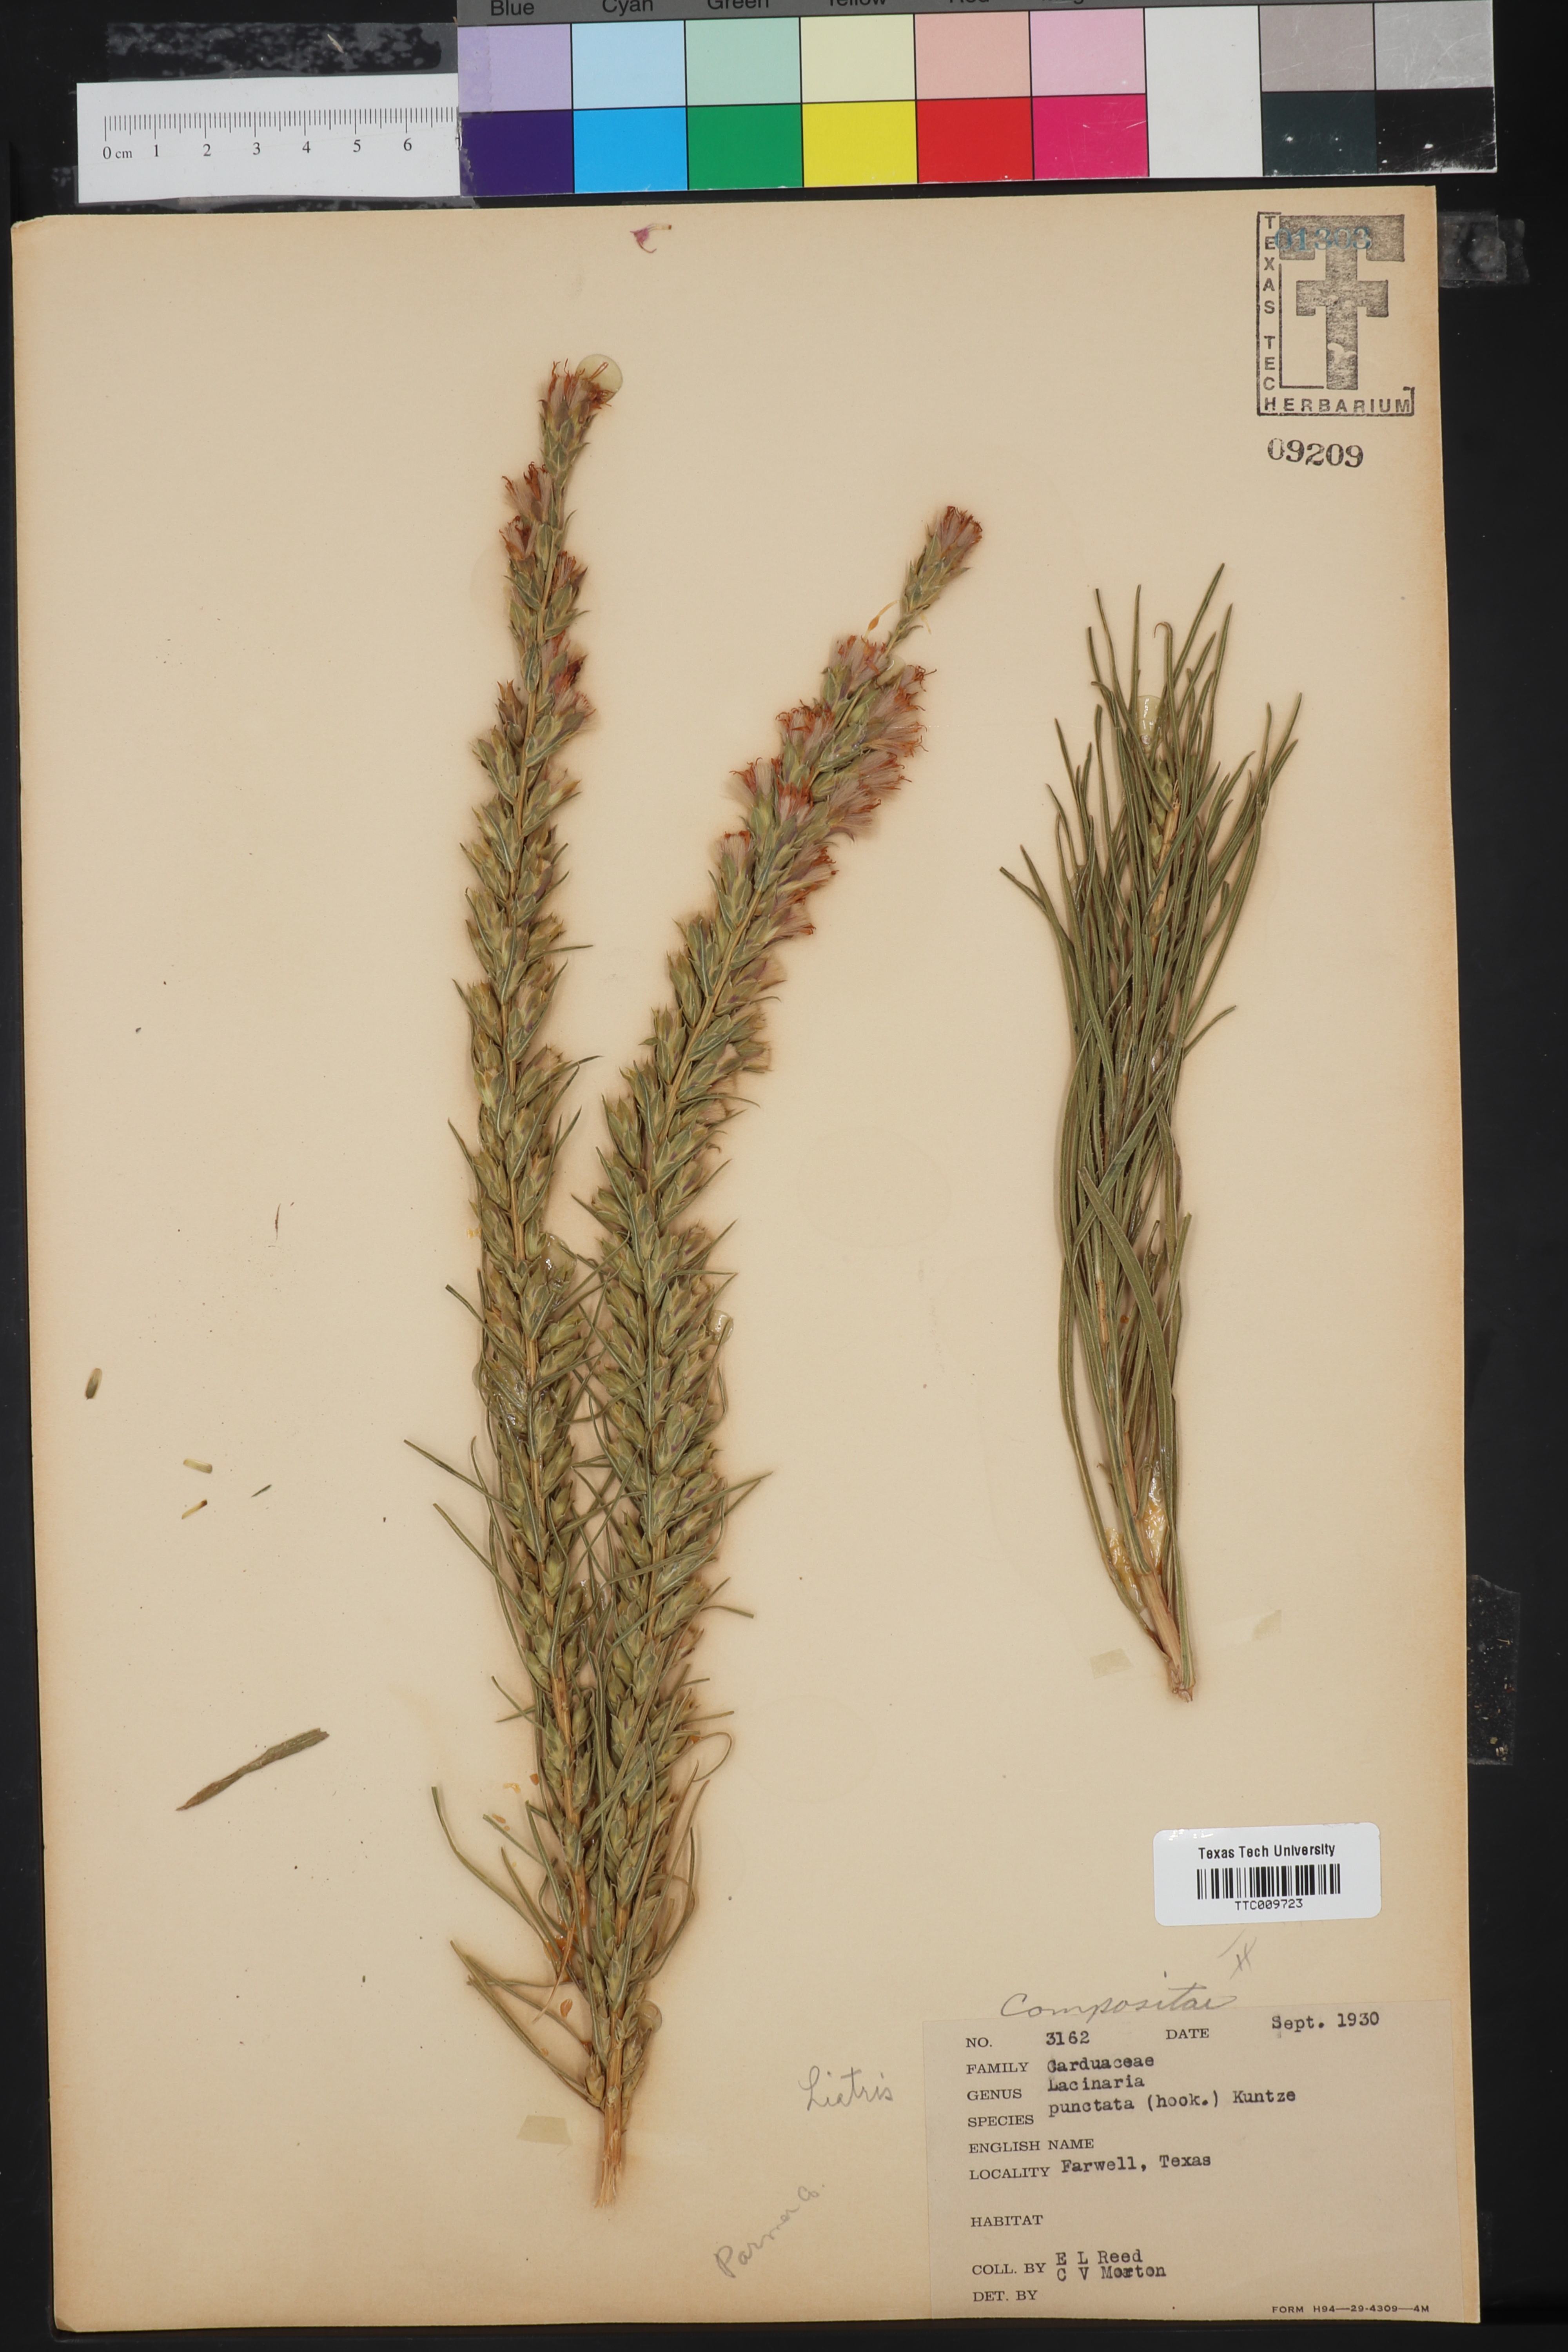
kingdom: Plantae
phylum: Tracheophyta
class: Magnoliopsida
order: Asterales
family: Asteraceae
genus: Liatris
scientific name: Liatris punctata
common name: Dotted gayfeather
